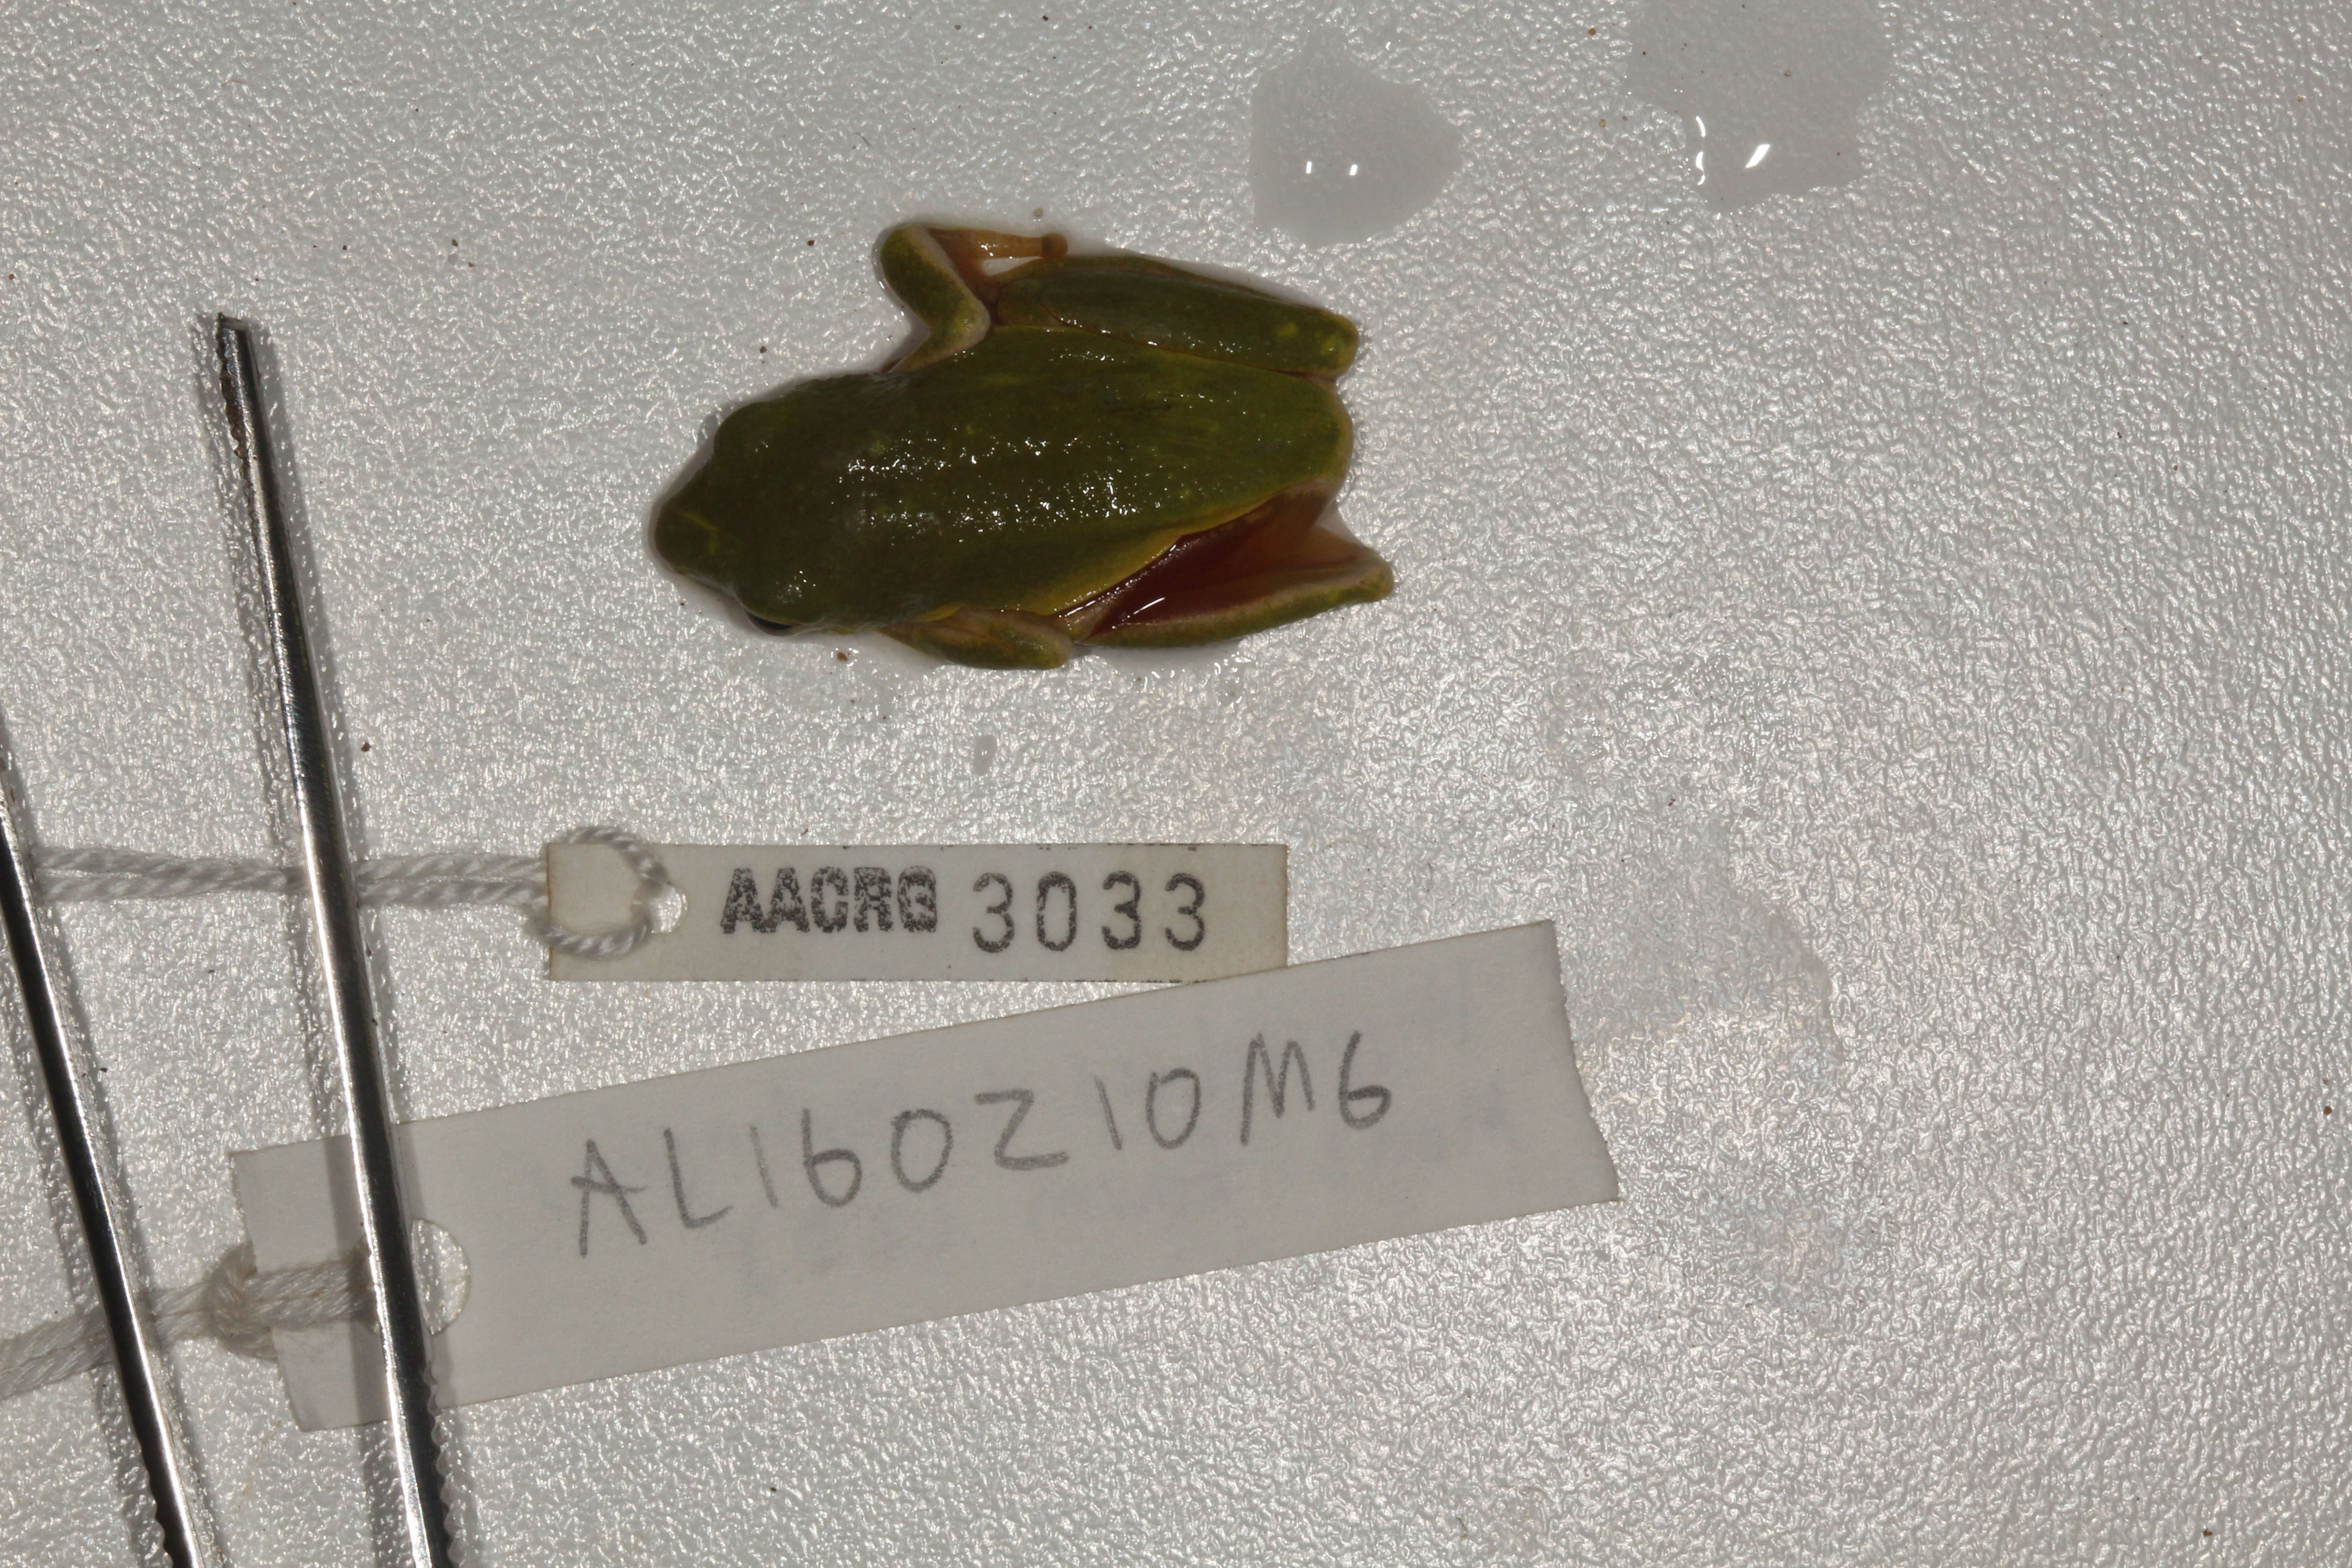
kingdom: Animalia
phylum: Chordata
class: Amphibia
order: Anura
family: Hyperoliidae
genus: Hyperolius
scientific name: Hyperolius tuberilinguis
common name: Tinker reed frog
